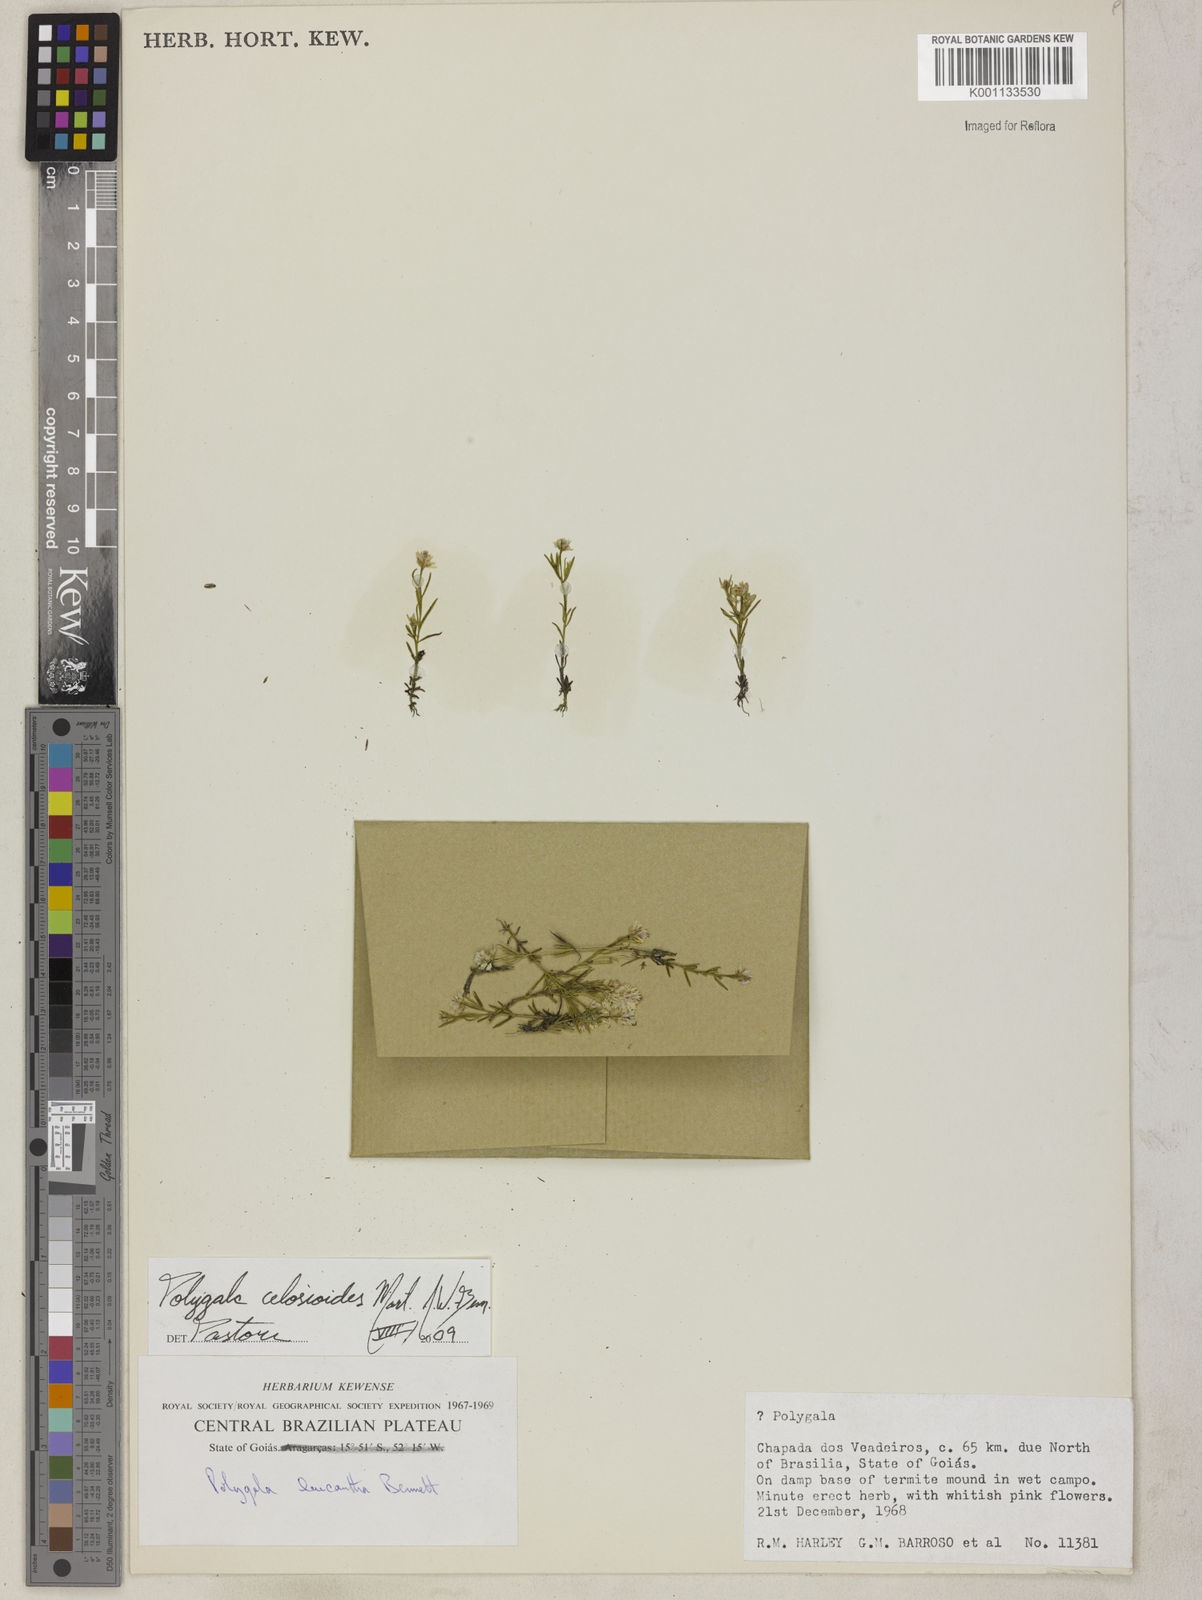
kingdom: Plantae
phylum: Tracheophyta
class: Magnoliopsida
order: Fabales
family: Polygalaceae
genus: Polygala
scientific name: Polygala celosioides
